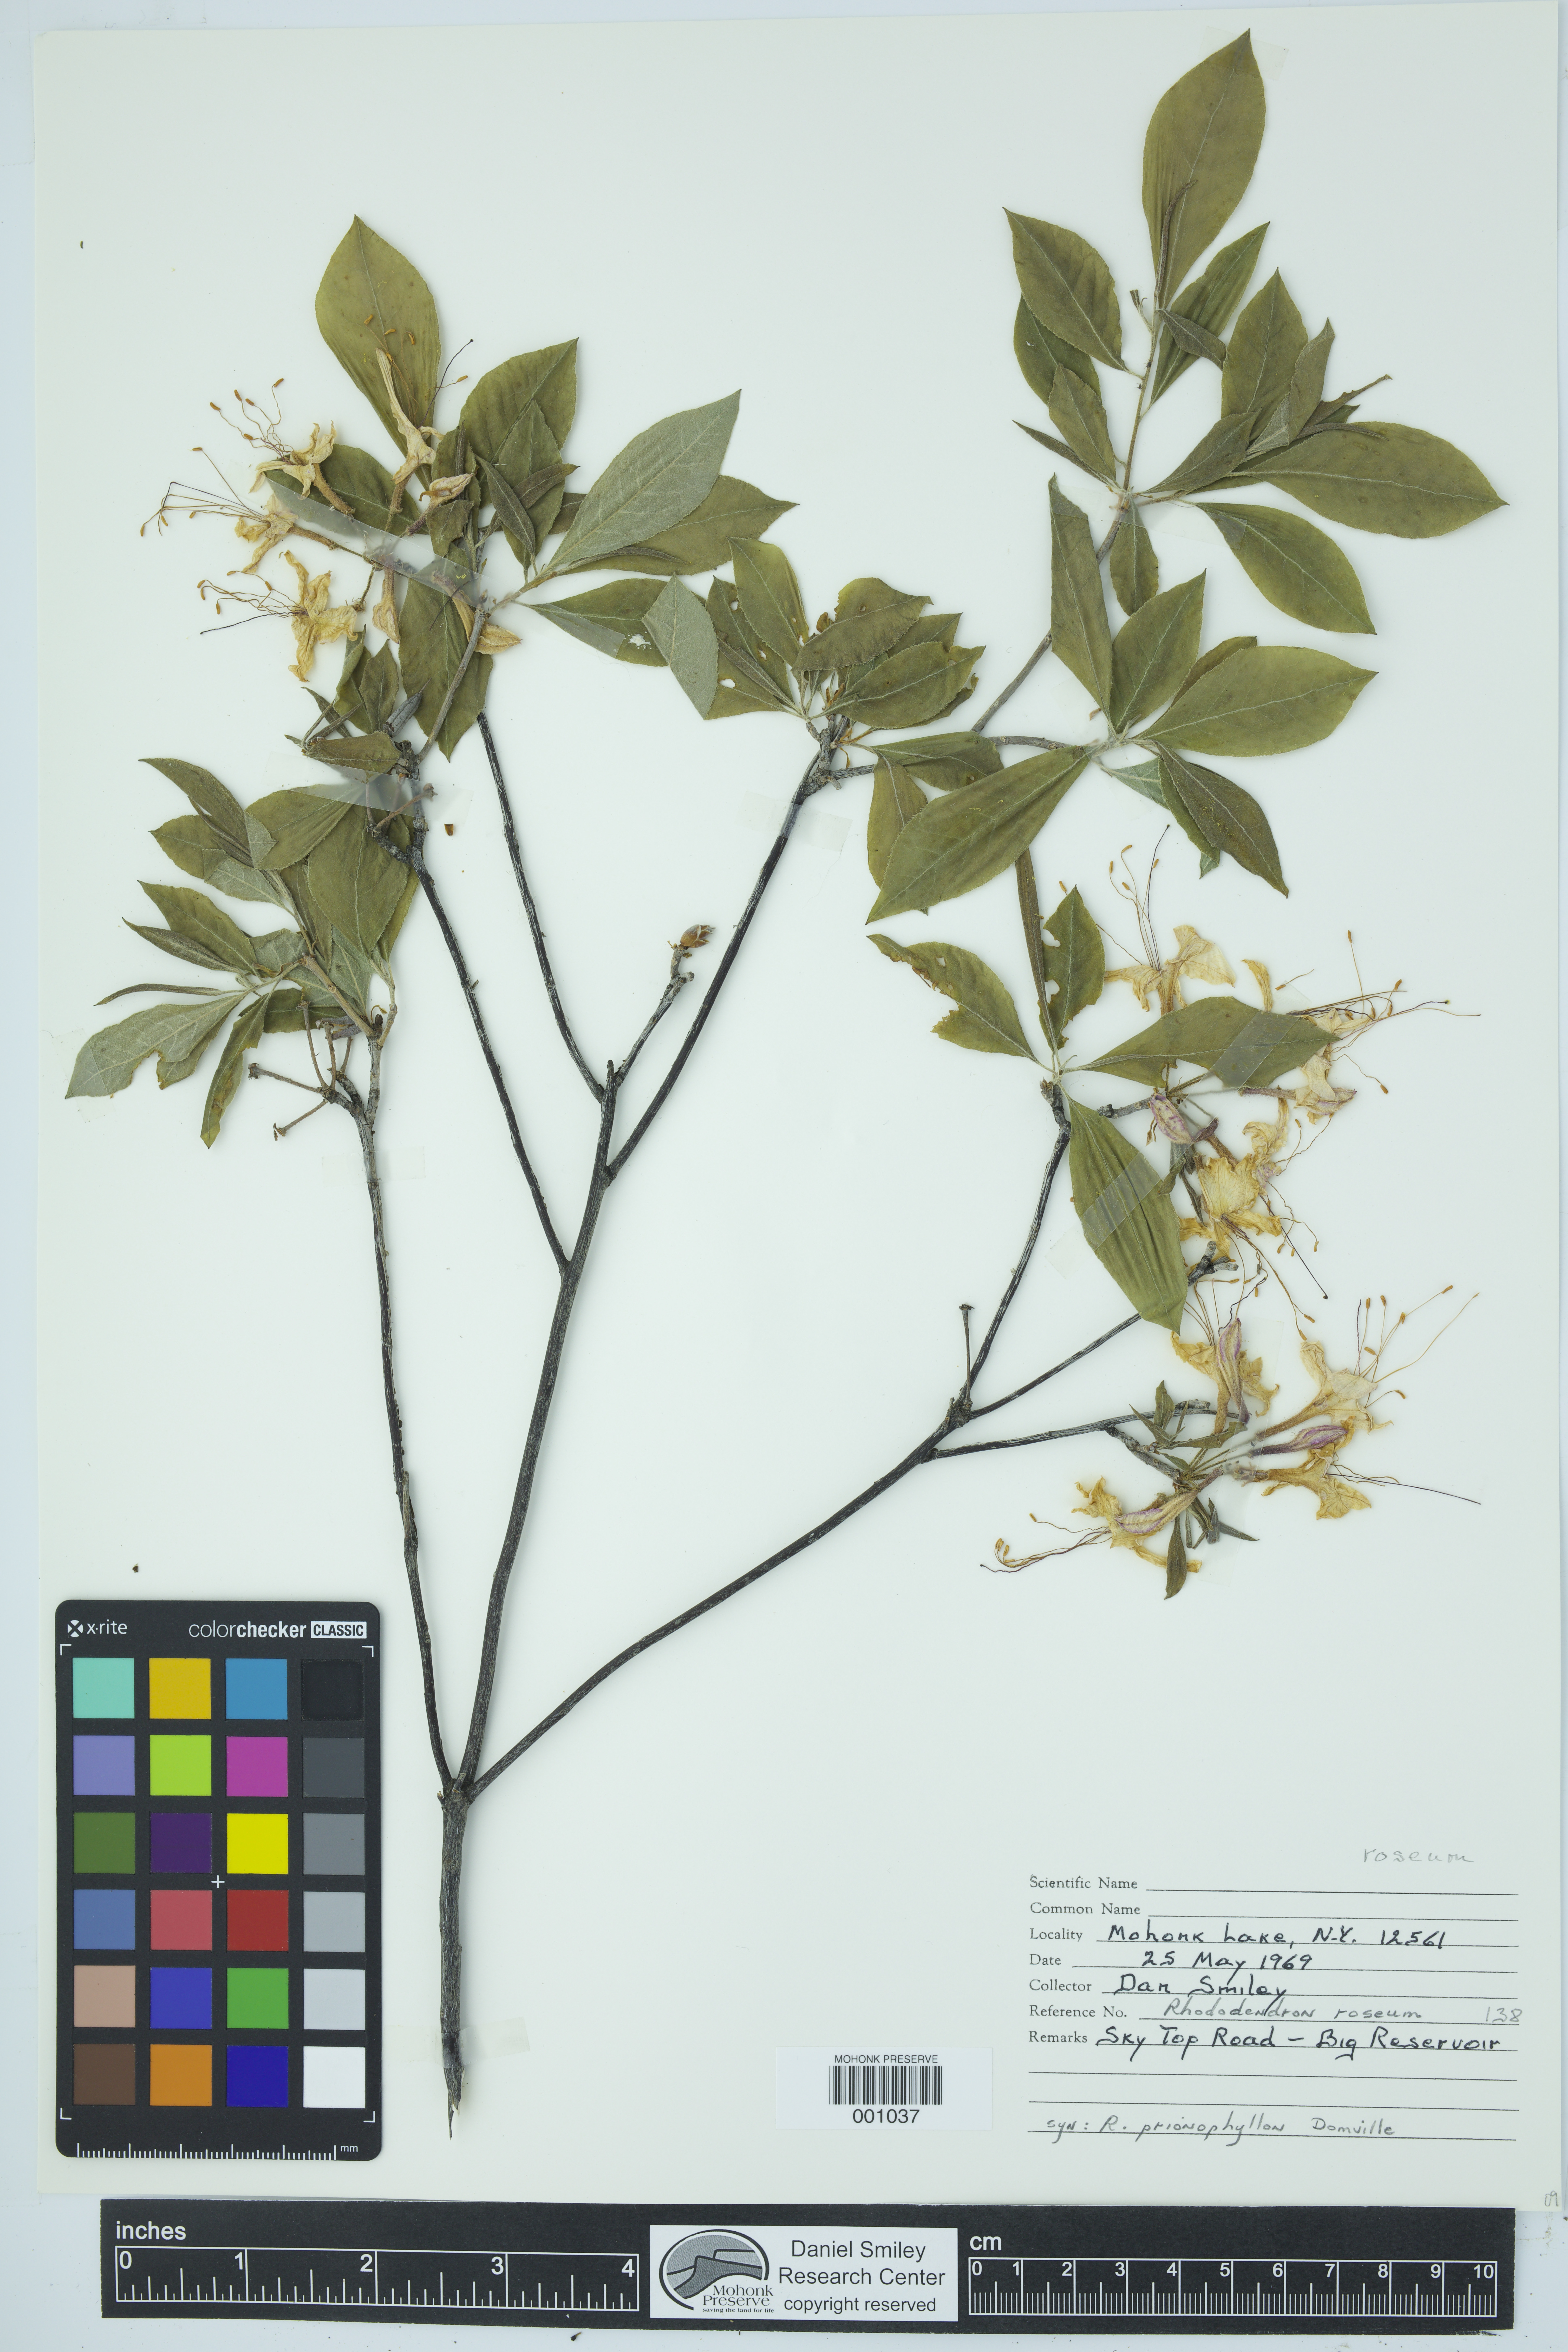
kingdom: Plantae
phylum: Tracheophyta
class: Magnoliopsida
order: Ericales
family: Ericaceae
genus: Rhododendron
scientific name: Rhododendron roseum
